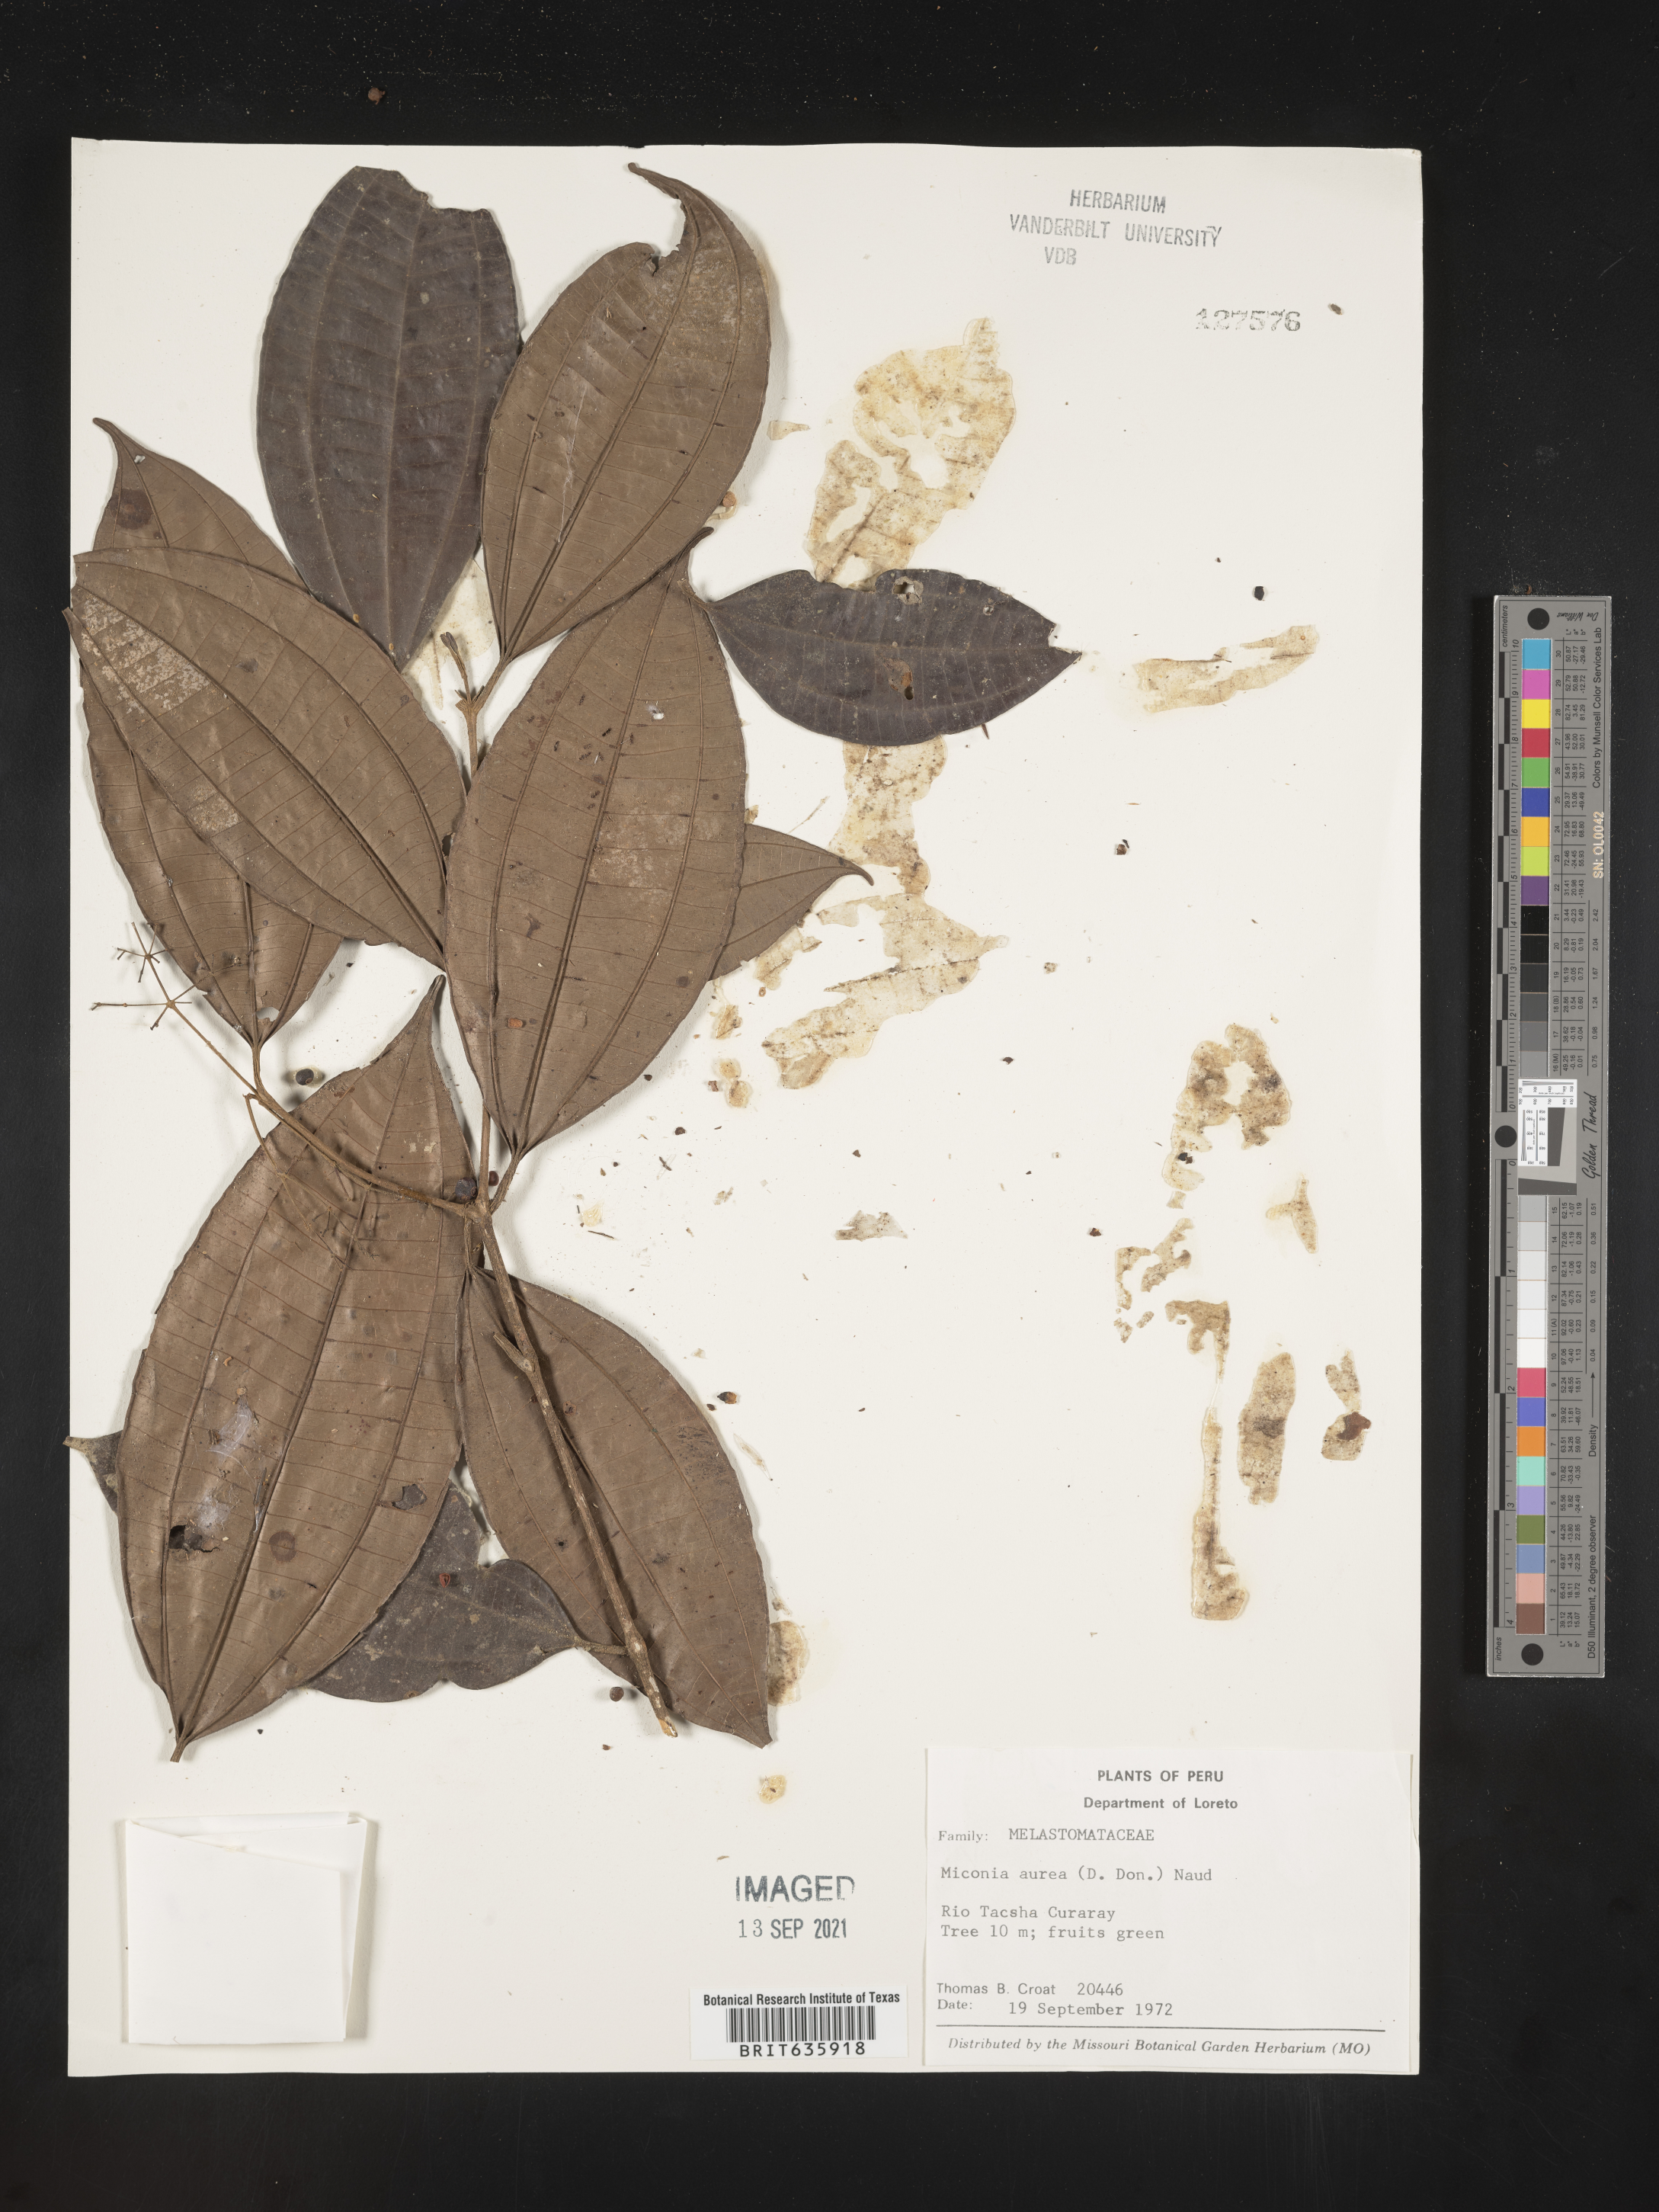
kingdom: Plantae
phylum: Tracheophyta
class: Magnoliopsida
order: Myrtales
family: Melastomataceae
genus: Miconia
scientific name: Miconia
